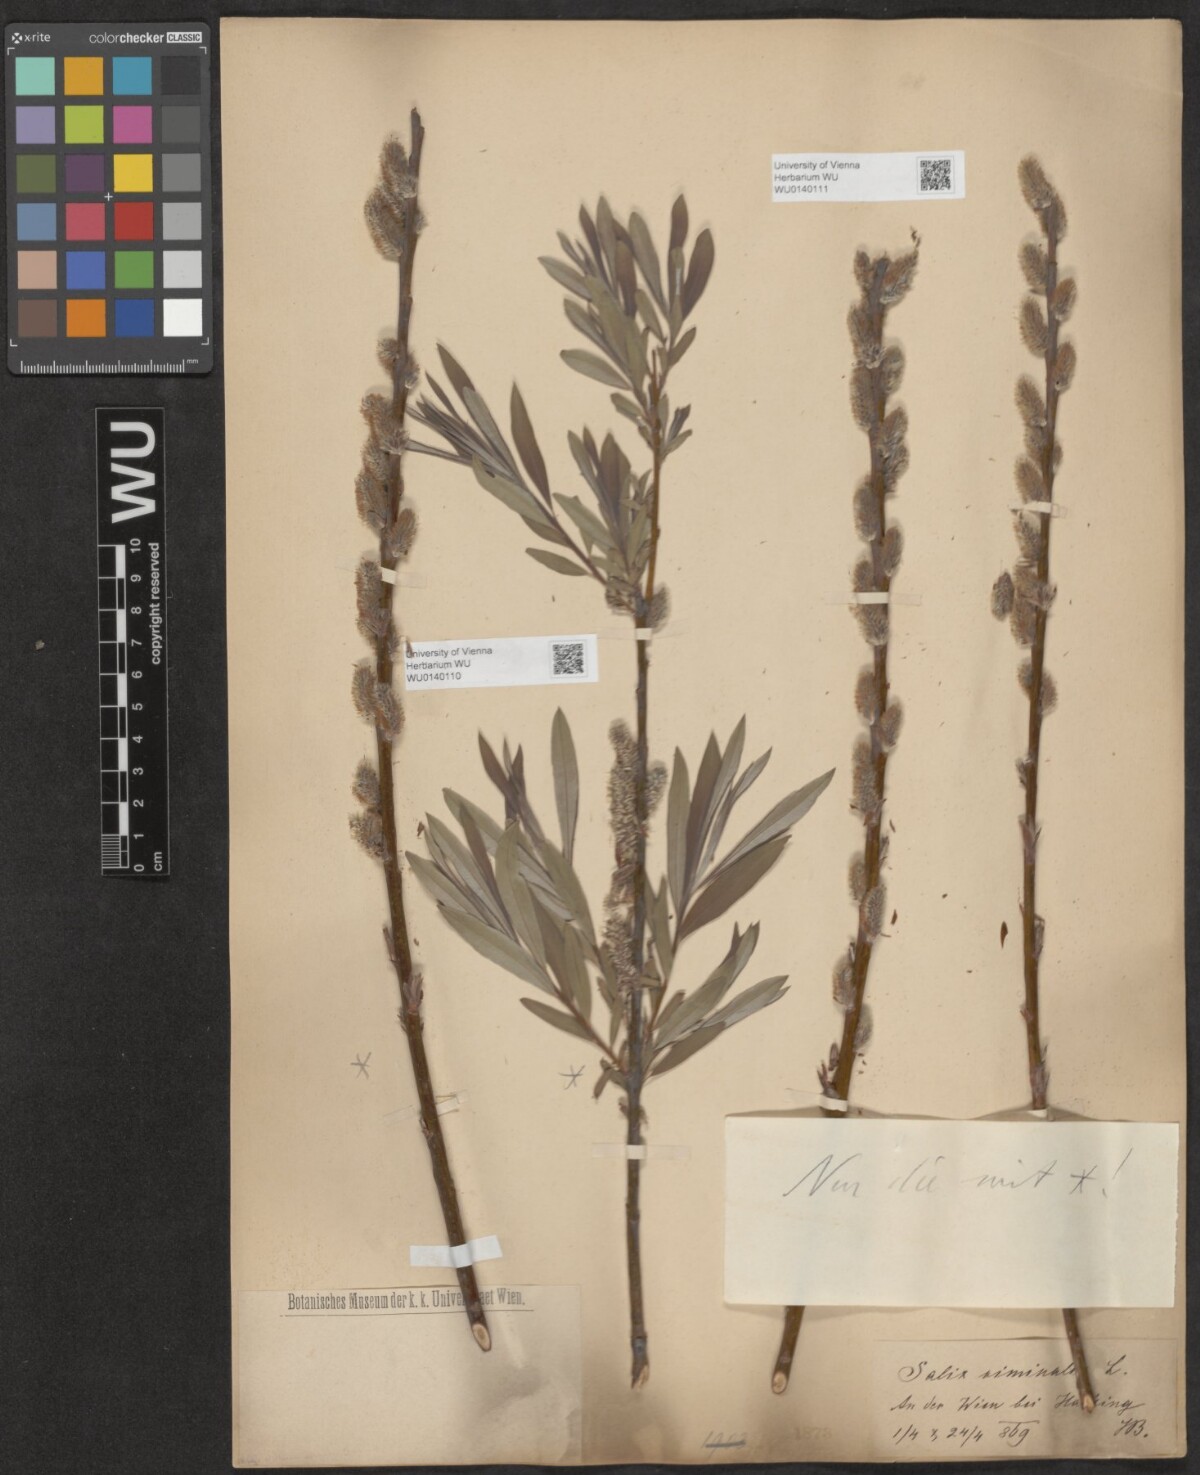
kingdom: Plantae
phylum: Tracheophyta
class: Magnoliopsida
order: Malpighiales
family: Salicaceae
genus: Salix
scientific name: Salix viminalis
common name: Osier
